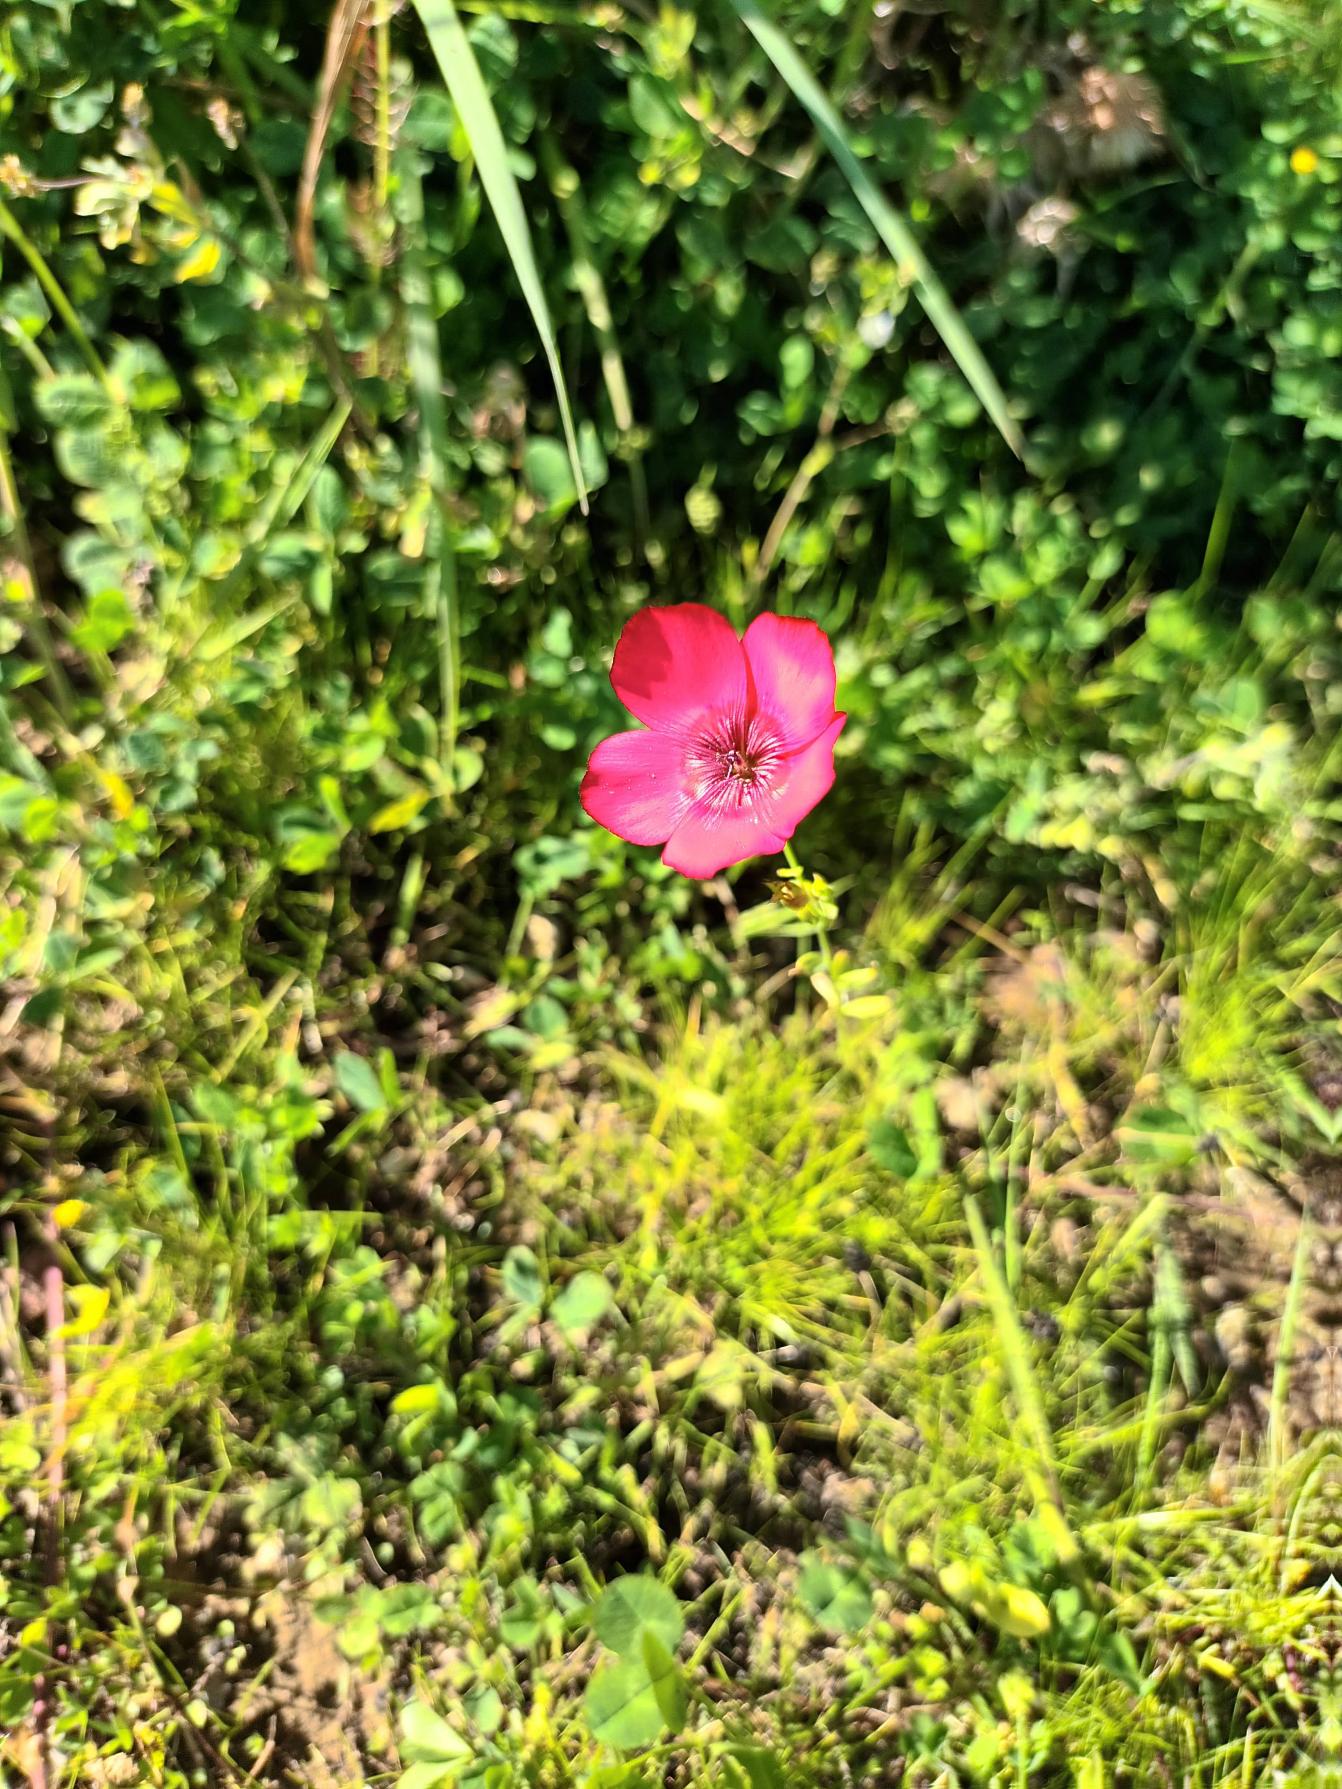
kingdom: Plantae
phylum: Tracheophyta
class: Magnoliopsida
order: Malpighiales
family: Linaceae
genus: Linum
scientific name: Linum grandiflorum
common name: Rød hør
